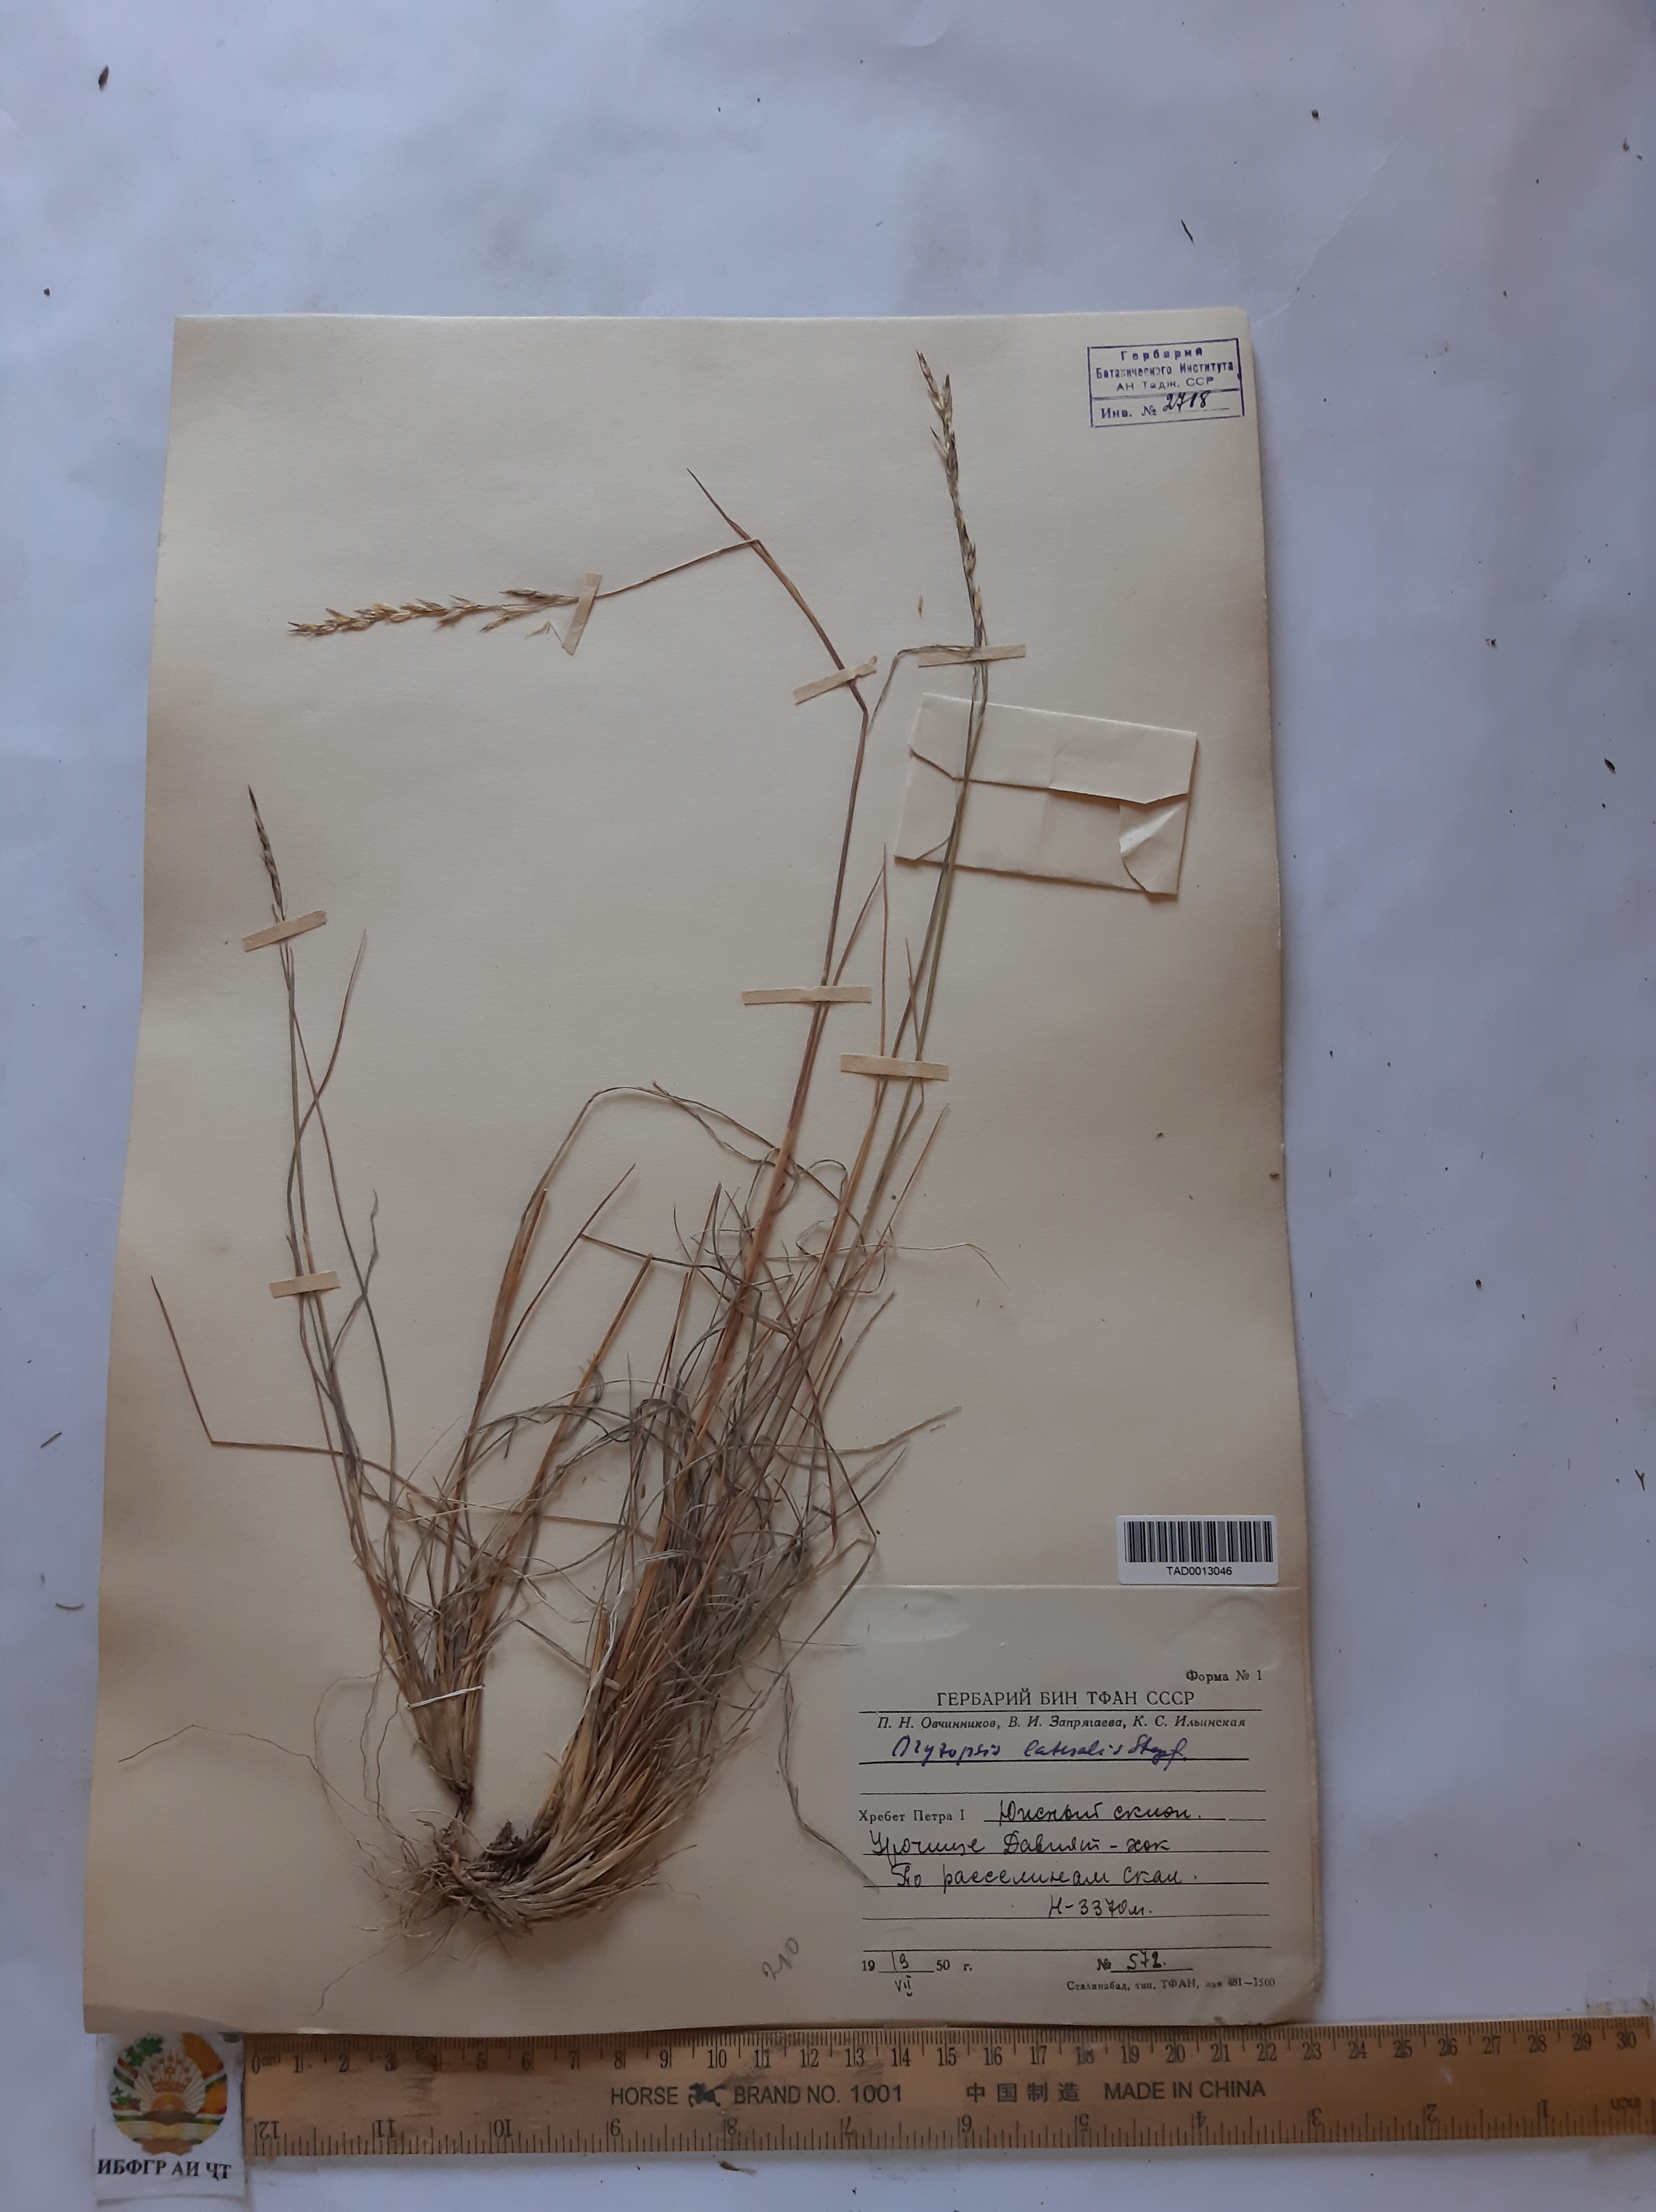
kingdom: Plantae
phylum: Tracheophyta
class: Liliopsida
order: Poales
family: Poaceae
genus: Piptatherum
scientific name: Piptatherum laterale
